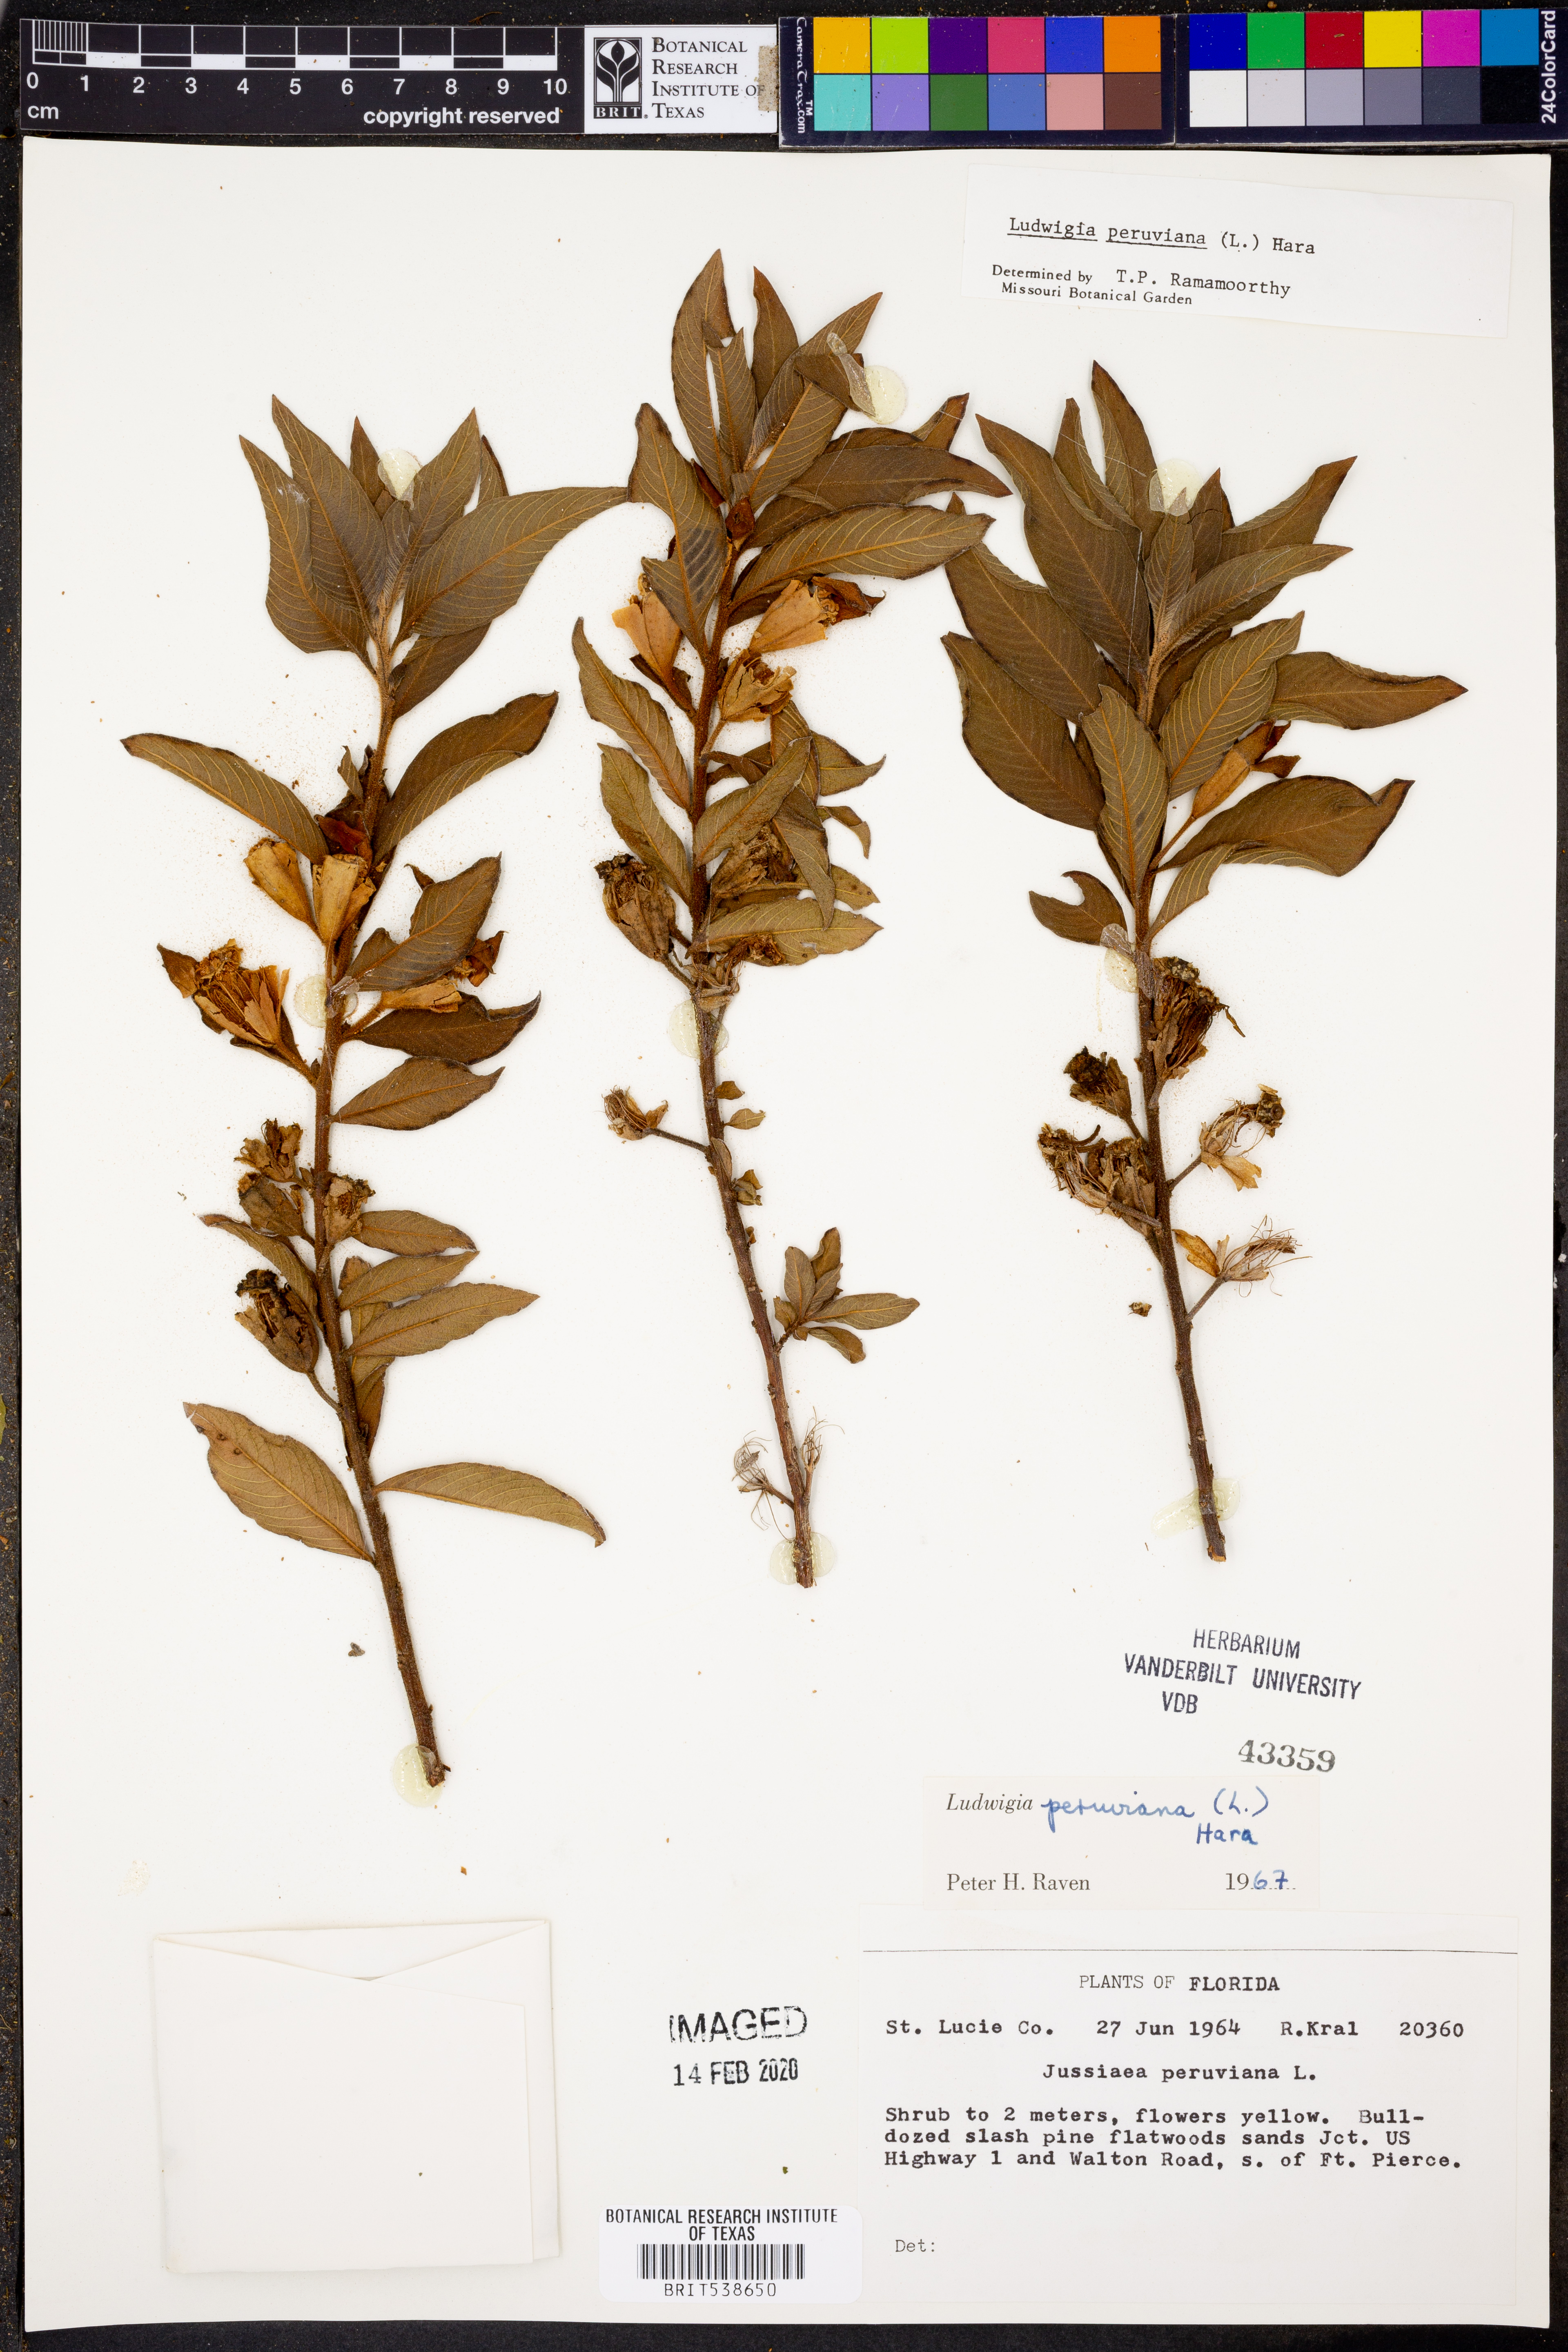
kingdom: Plantae
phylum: Tracheophyta
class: Magnoliopsida
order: Myrtales
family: Onagraceae
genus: Ludwigia
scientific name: Ludwigia peruviana
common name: Peruvian primrose-willow
